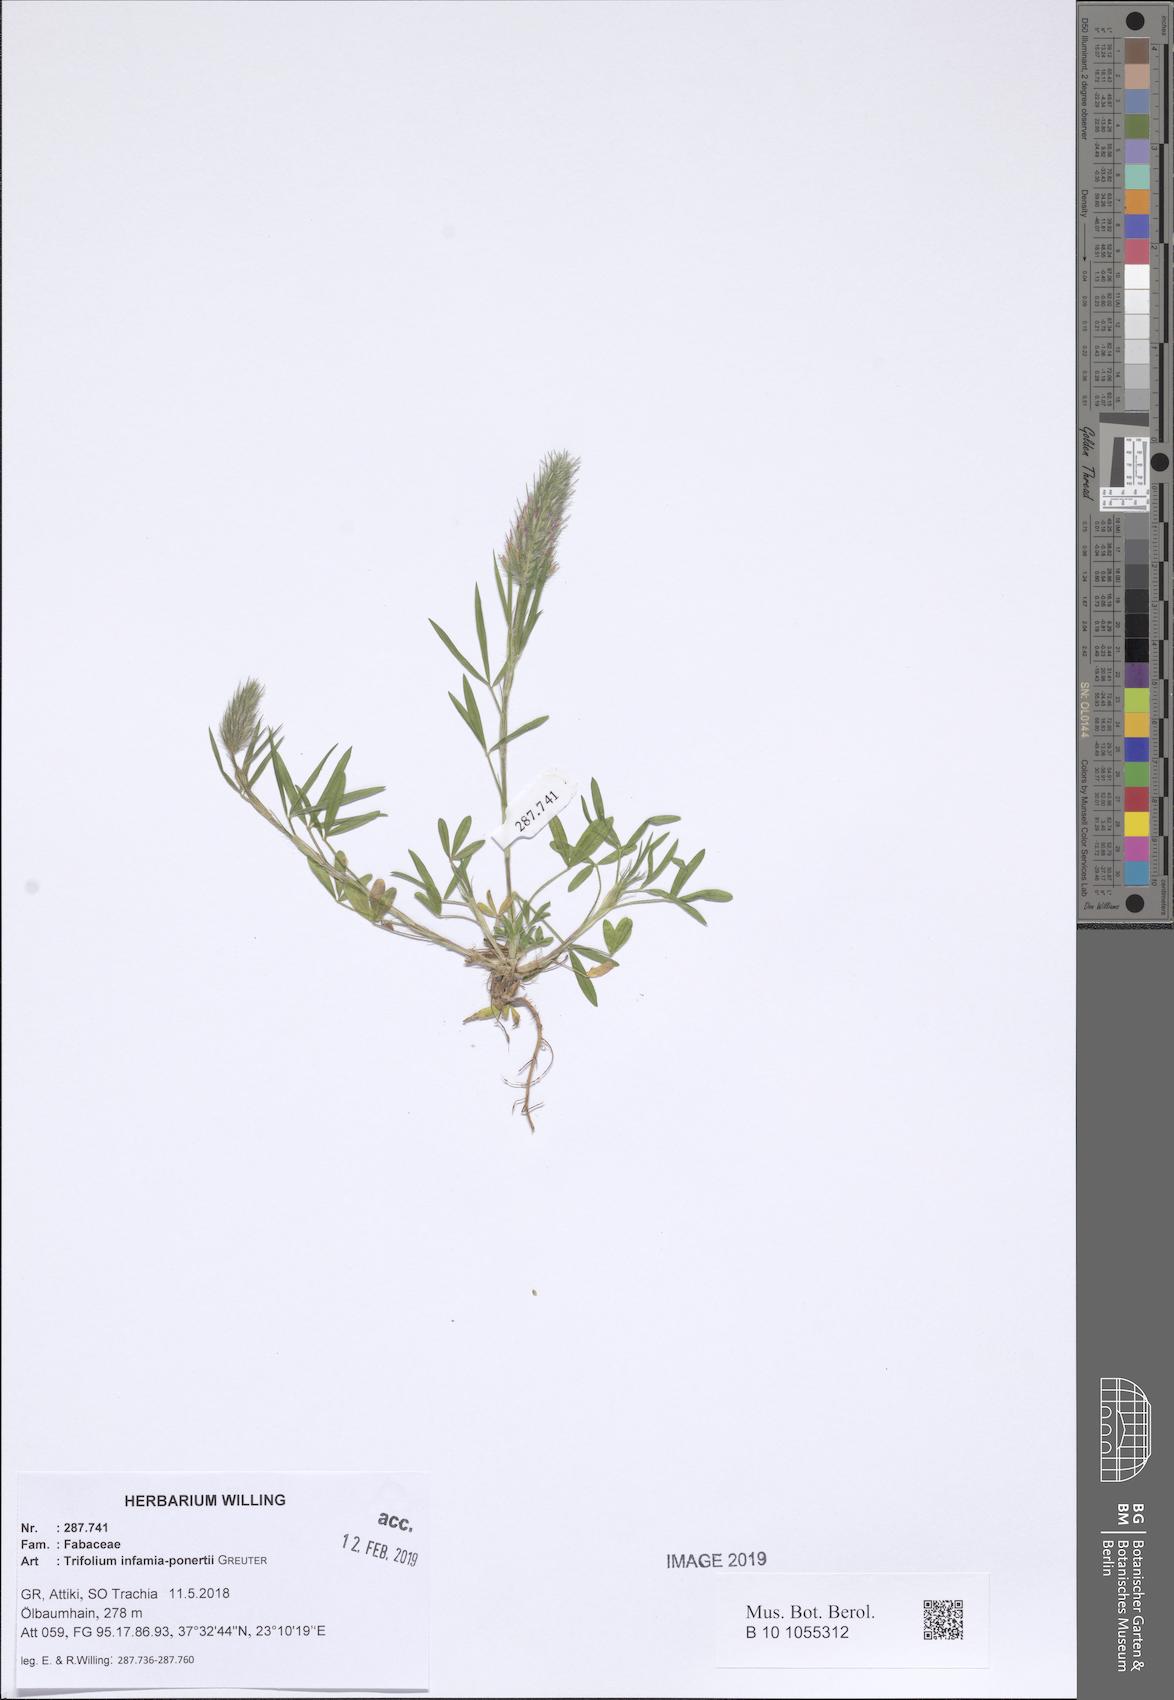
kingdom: Plantae
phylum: Tracheophyta
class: Magnoliopsida
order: Fabales
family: Fabaceae
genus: Trifolium
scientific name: Trifolium infamia-ponertii
